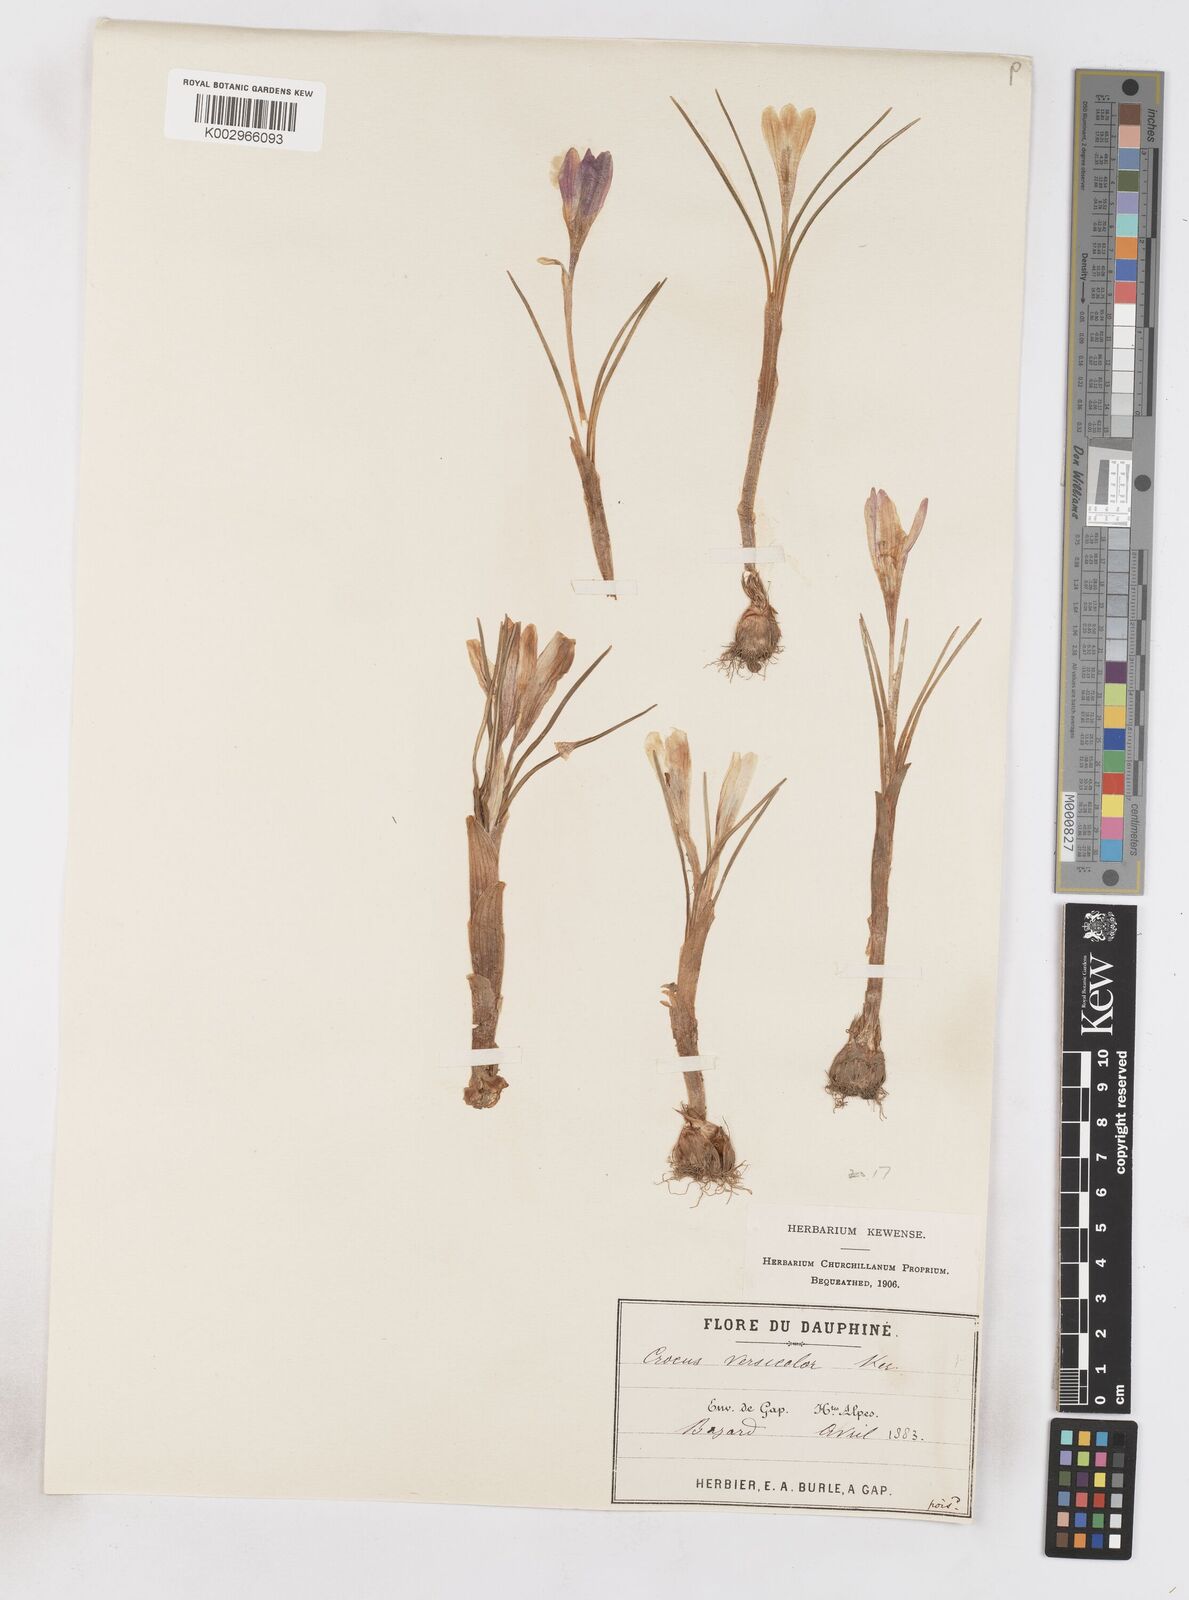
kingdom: Plantae
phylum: Tracheophyta
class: Liliopsida
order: Asparagales
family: Iridaceae
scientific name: Iridaceae
